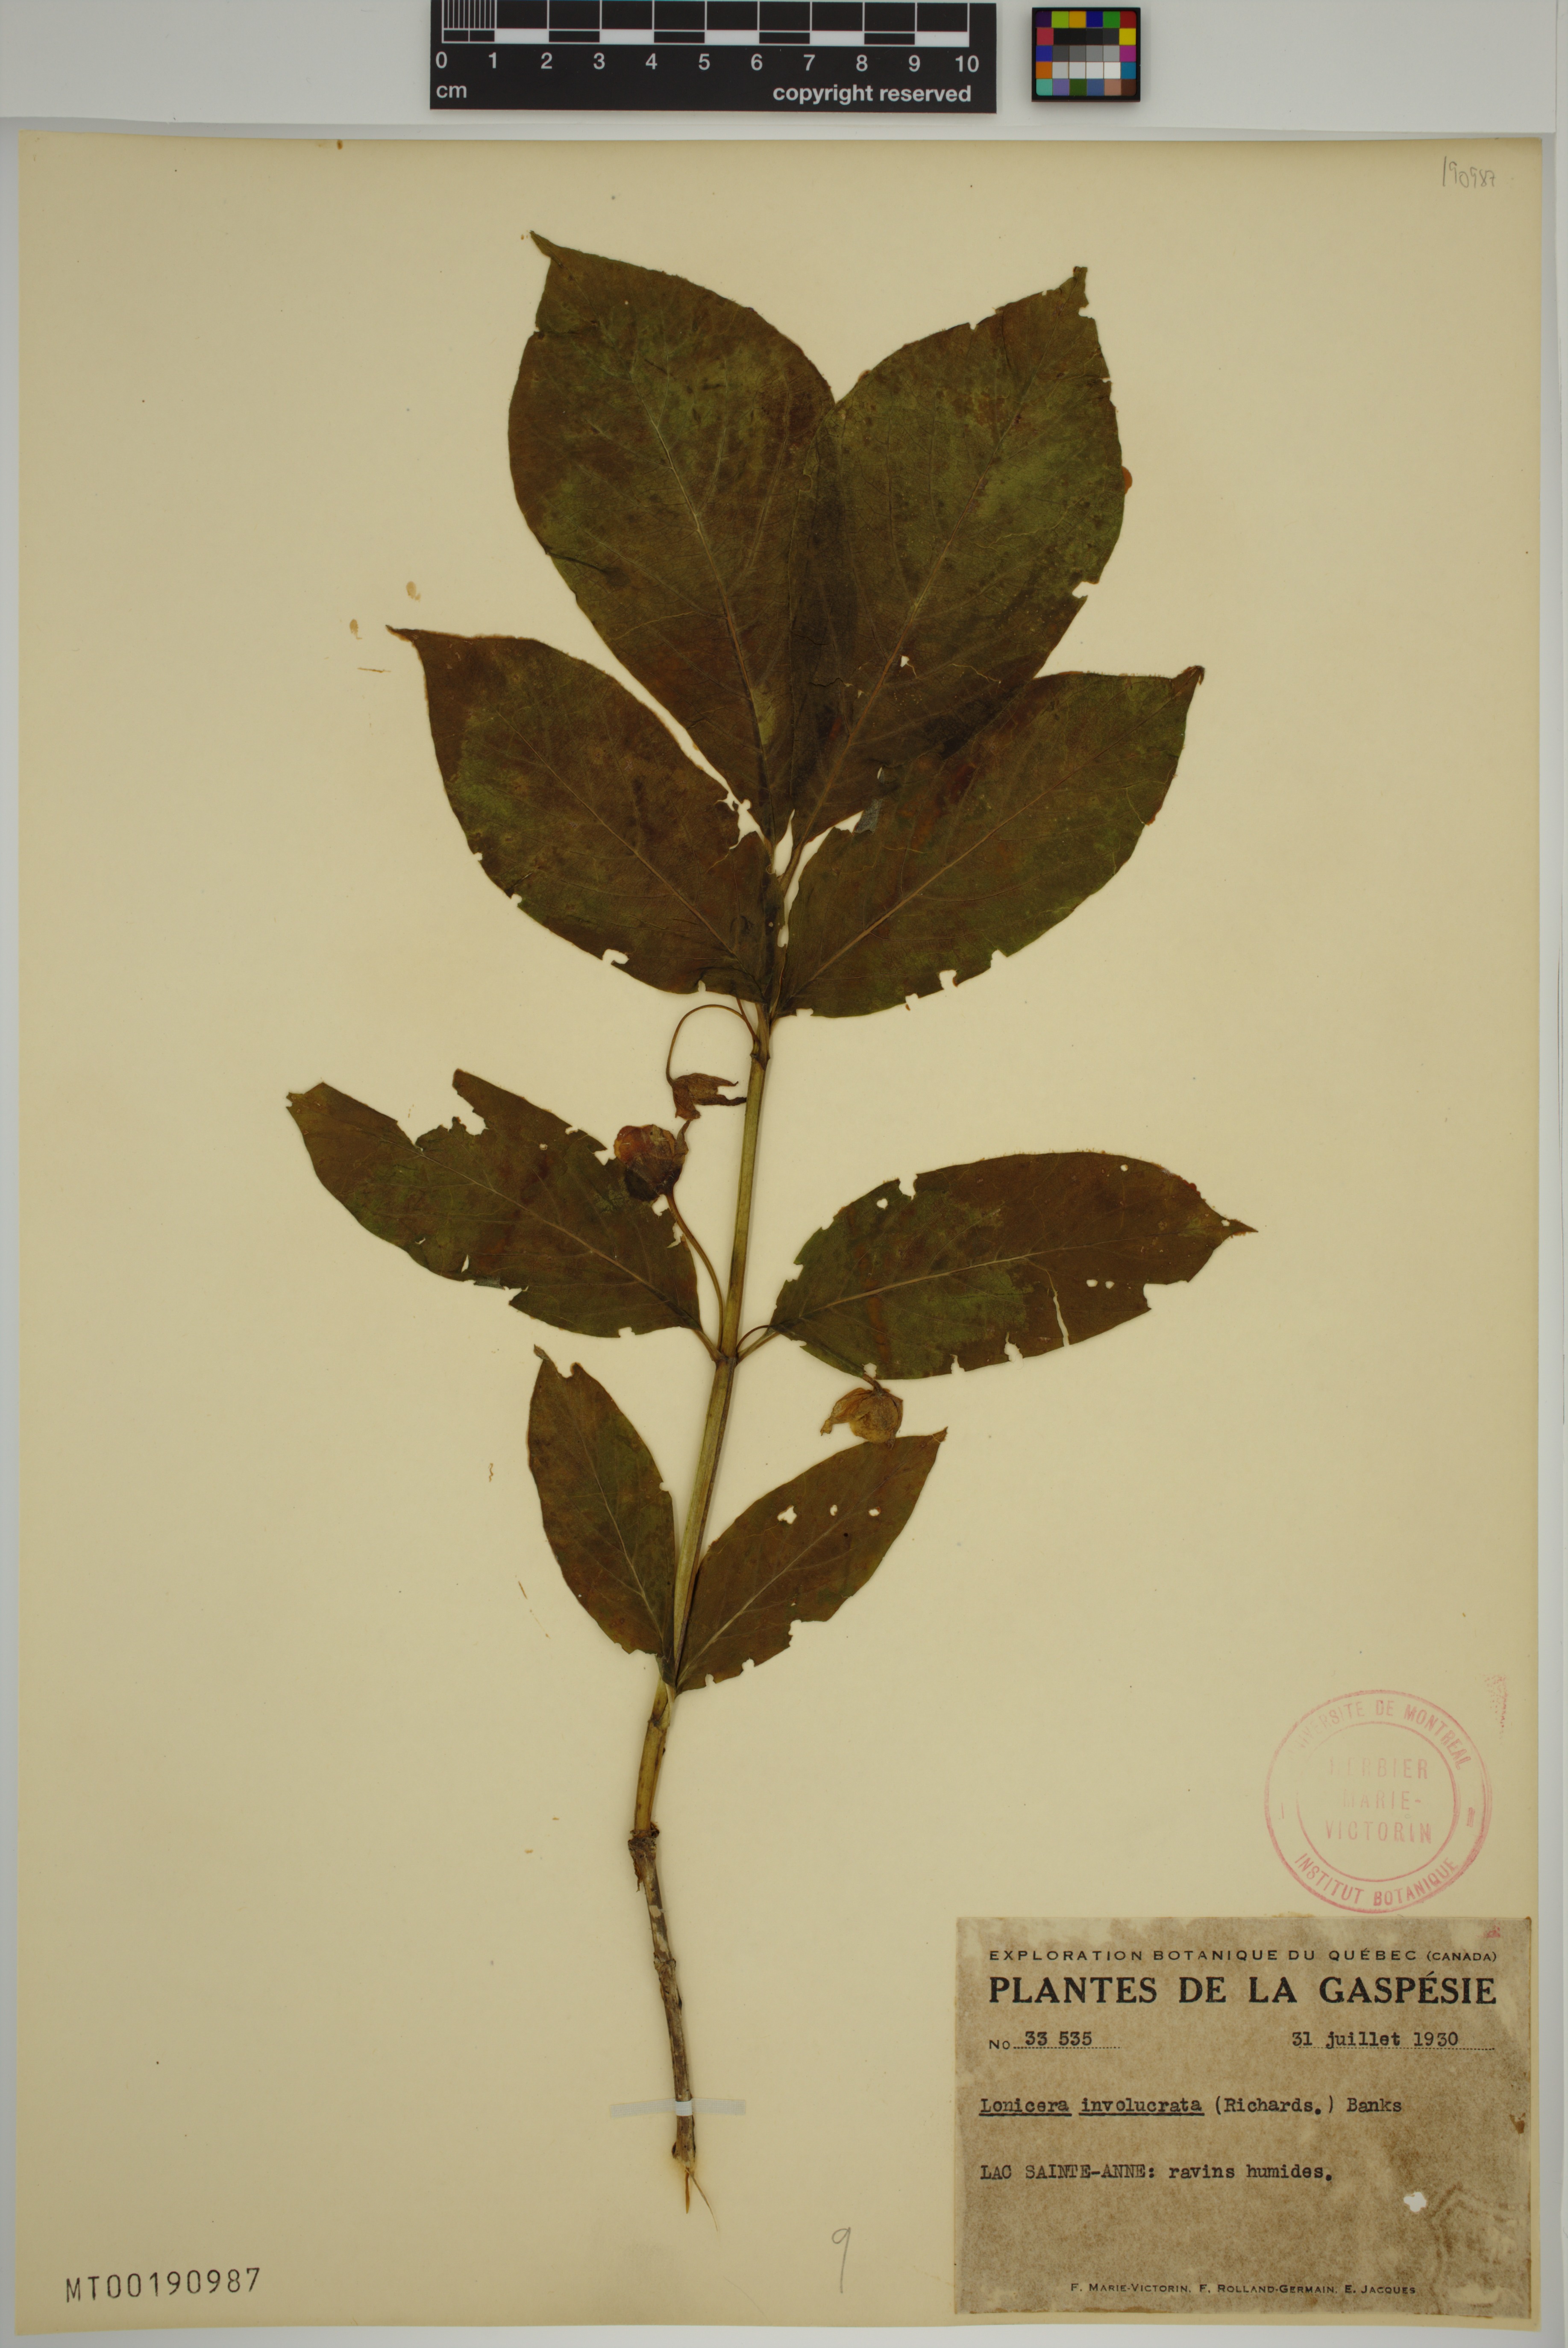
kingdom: Plantae
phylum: Tracheophyta
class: Magnoliopsida
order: Dipsacales
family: Caprifoliaceae
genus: Lonicera
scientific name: Lonicera involucrata
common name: Californian honeysuckle
